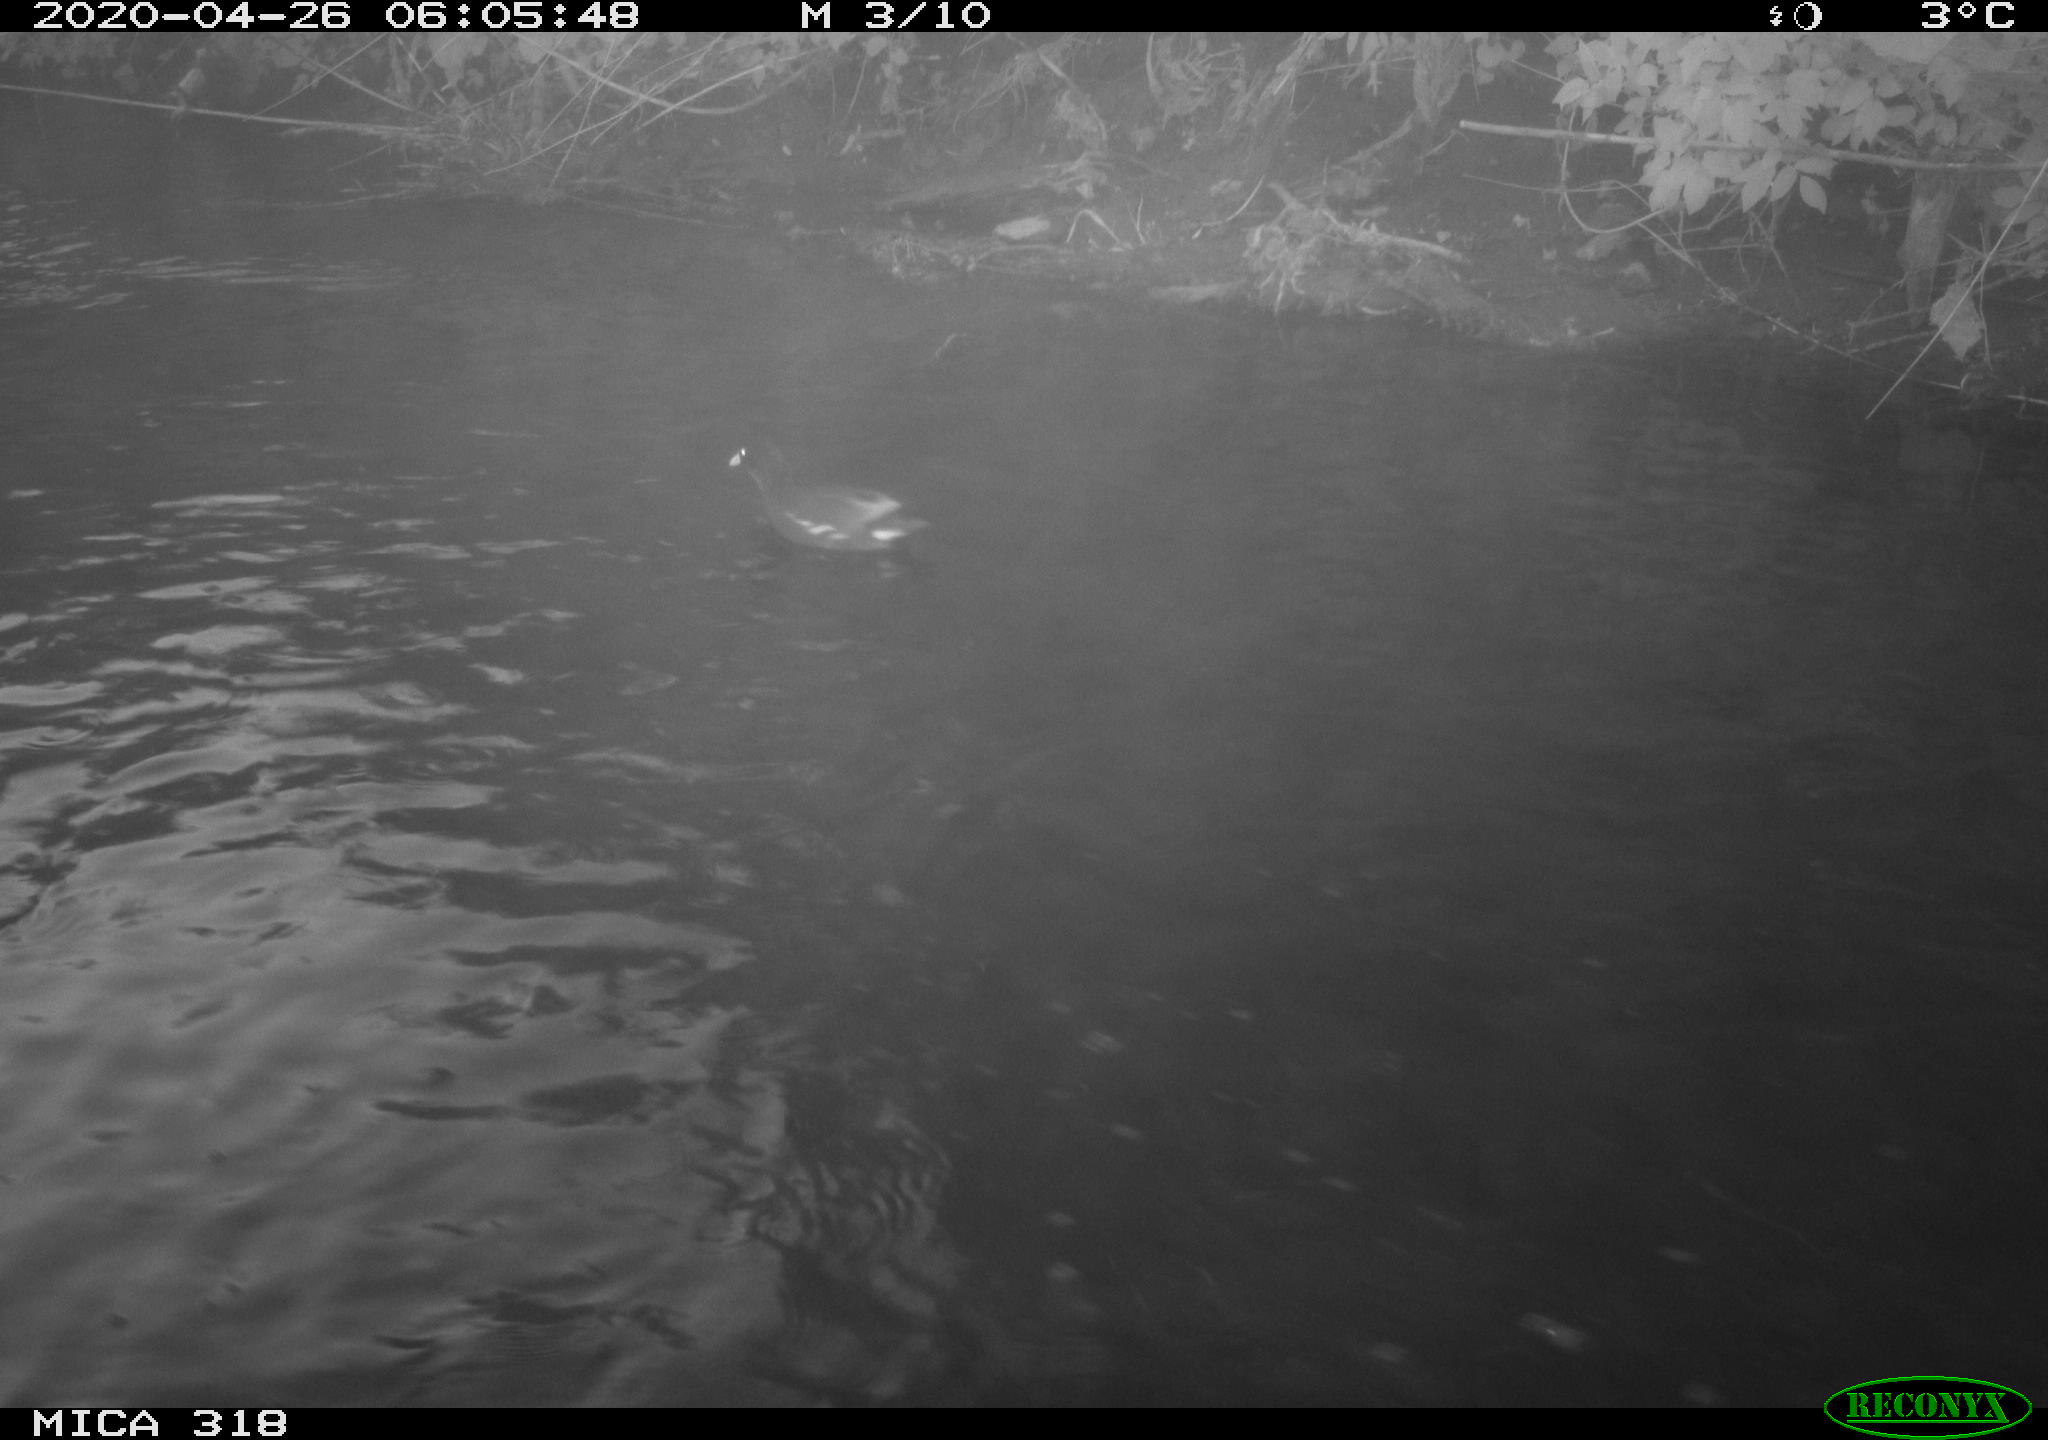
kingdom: Animalia
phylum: Chordata
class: Aves
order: Gruiformes
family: Rallidae
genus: Gallinula
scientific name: Gallinula chloropus
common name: Common moorhen
